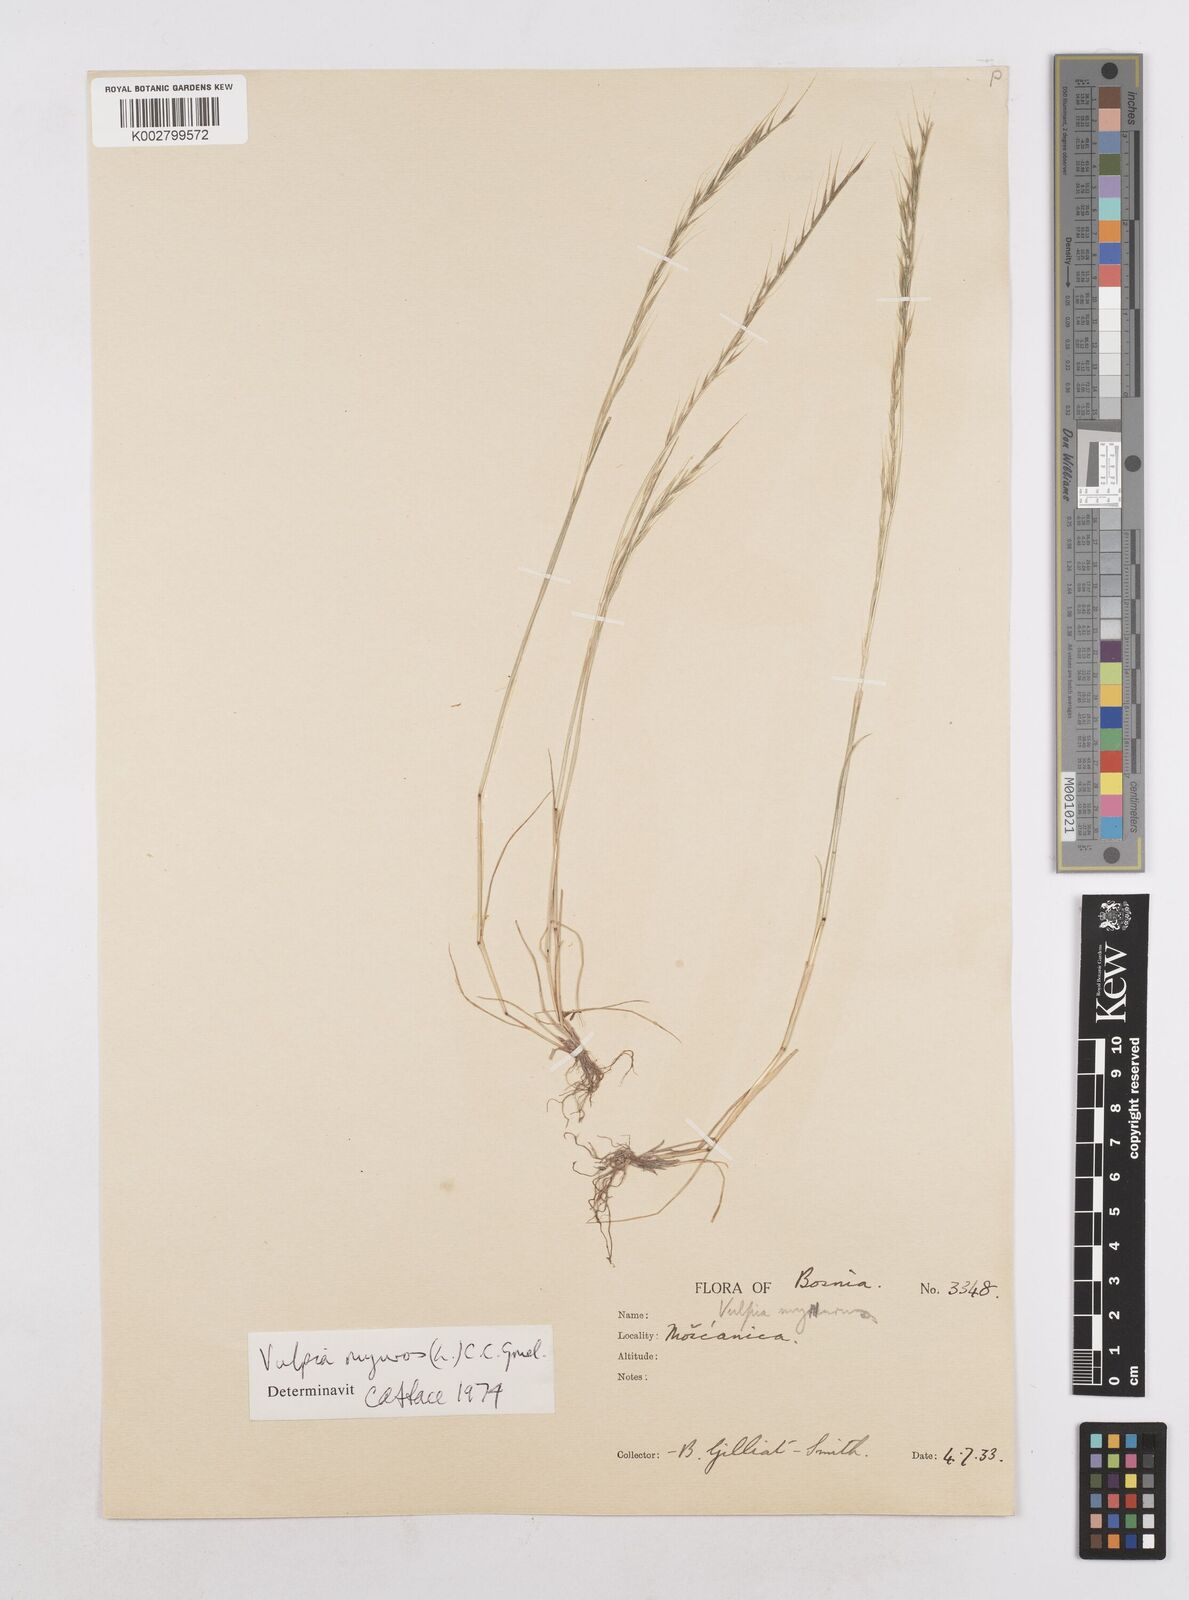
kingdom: Plantae
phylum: Tracheophyta
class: Liliopsida
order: Poales
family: Poaceae
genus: Festuca
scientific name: Festuca myuros
